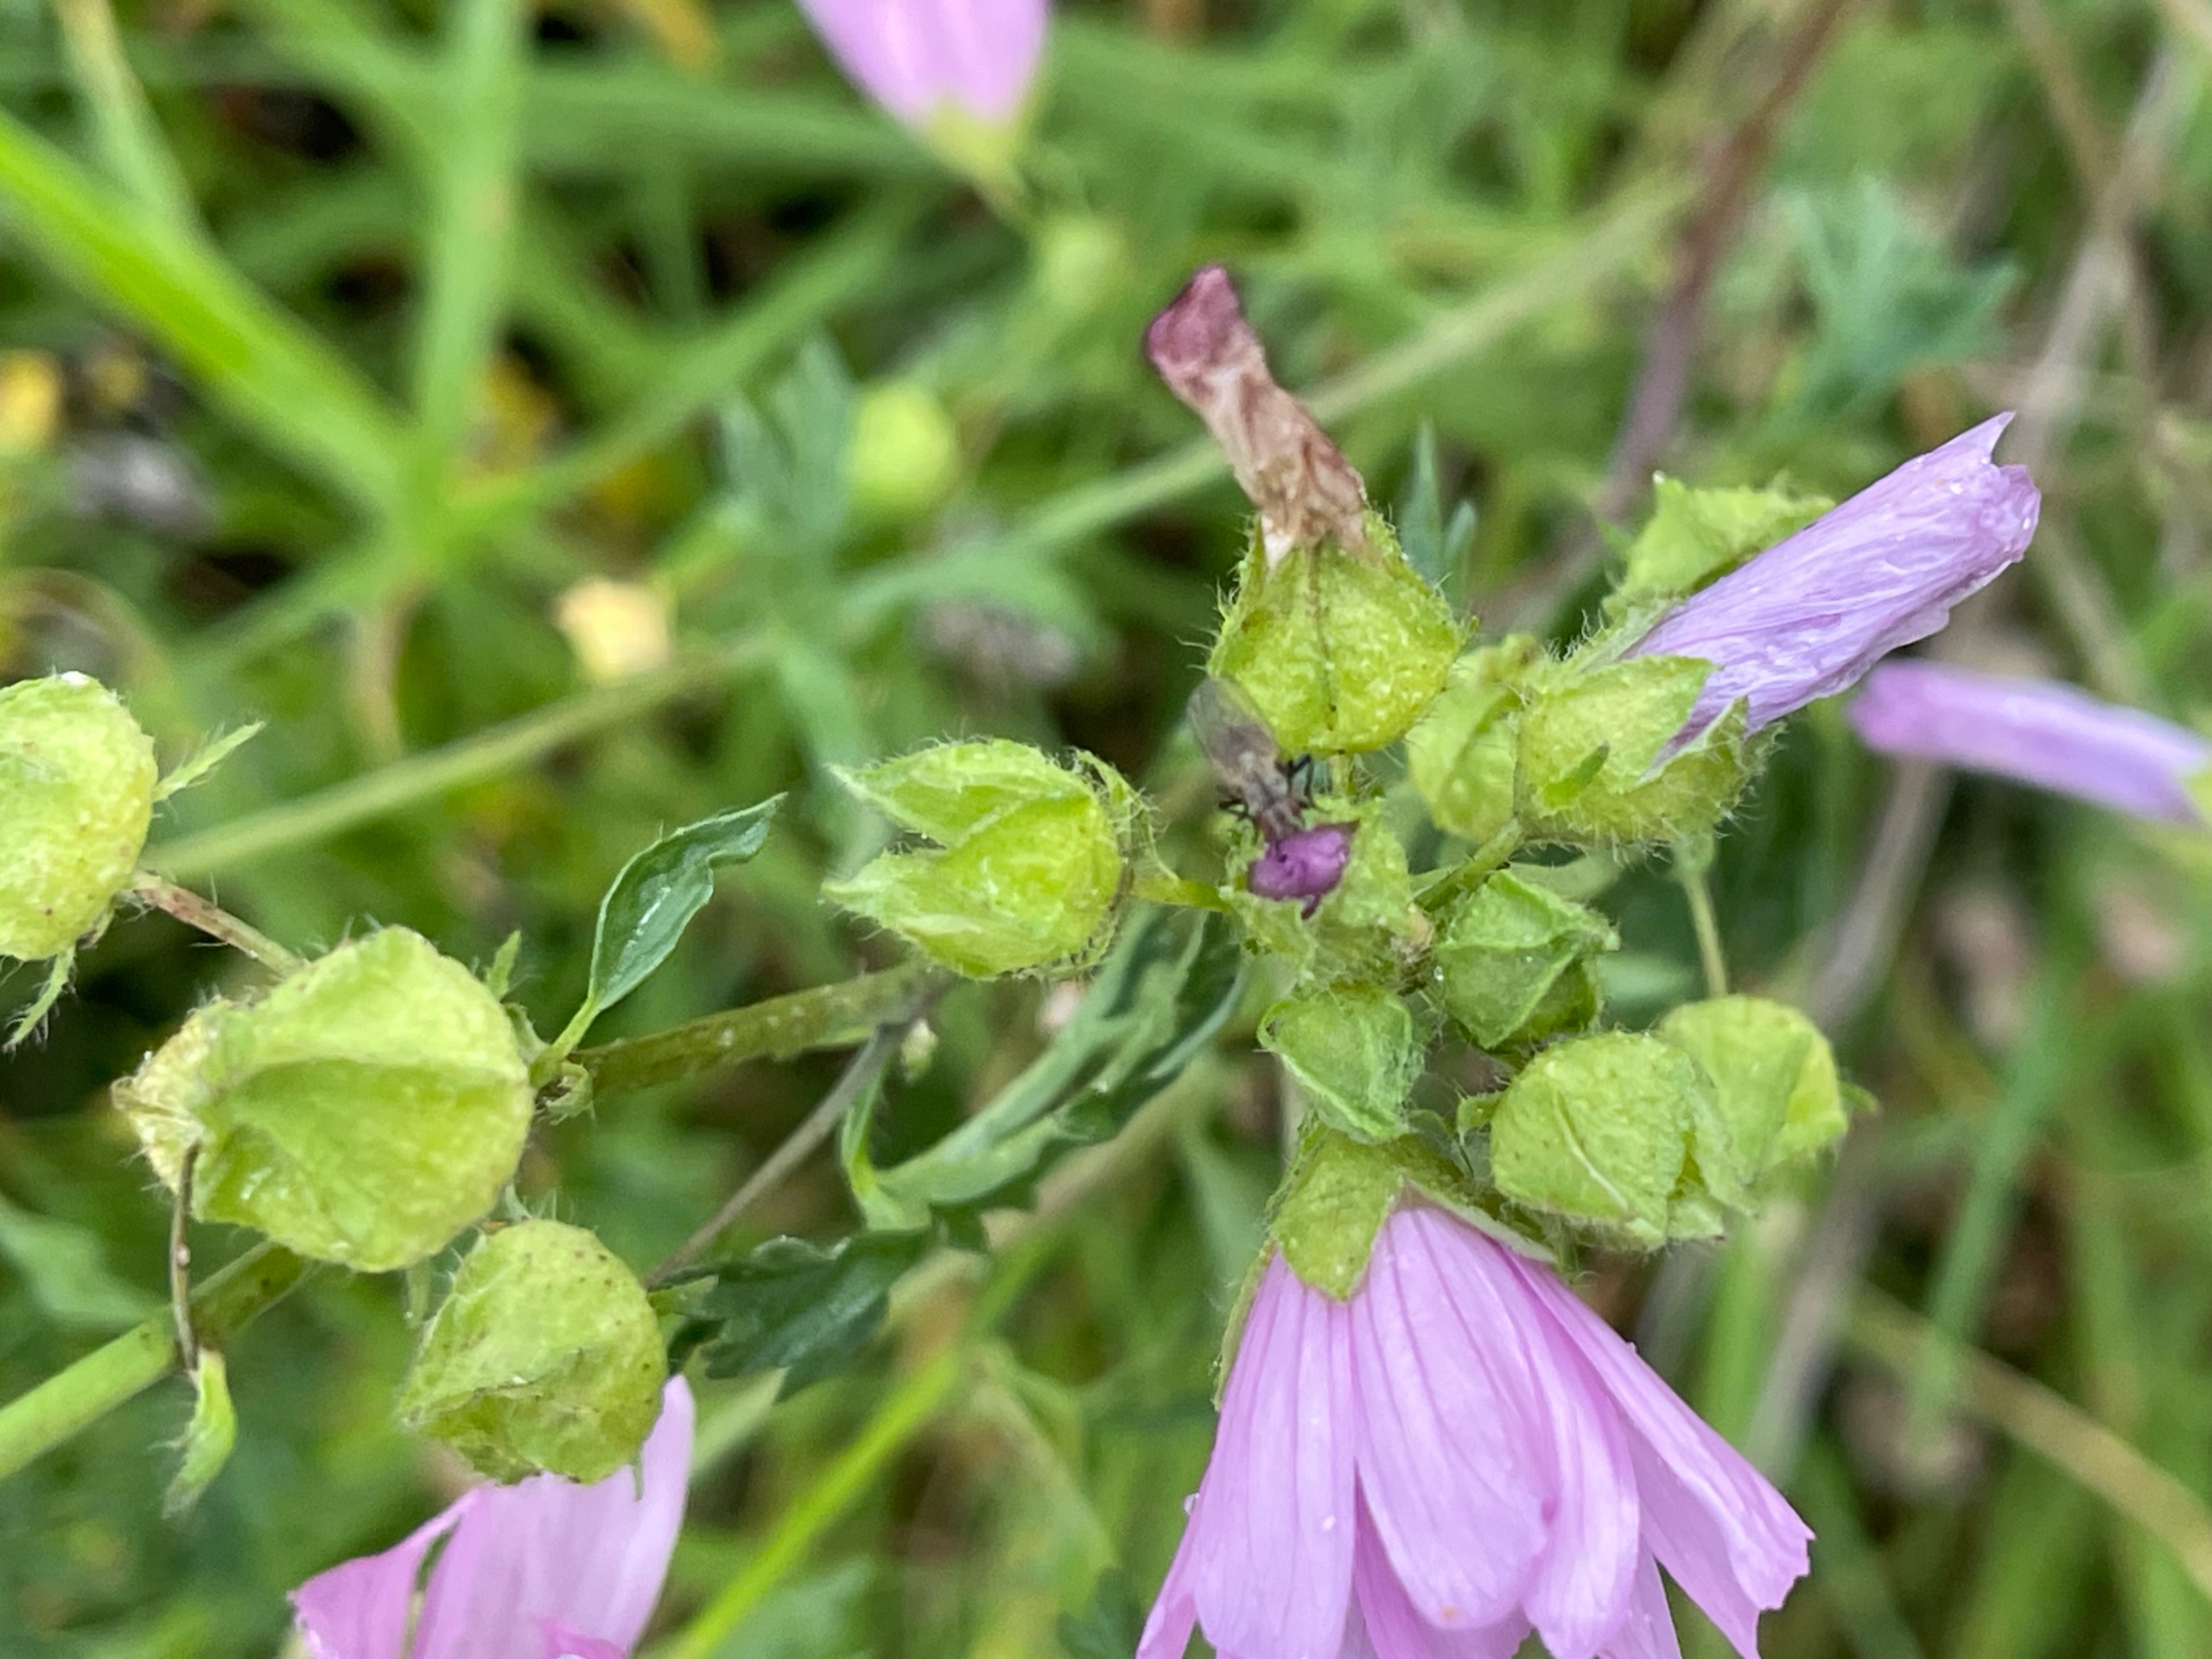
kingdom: Plantae
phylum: Tracheophyta
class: Magnoliopsida
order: Malvales
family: Malvaceae
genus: Malva
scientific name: Malva moschata
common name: Moskus-katost
